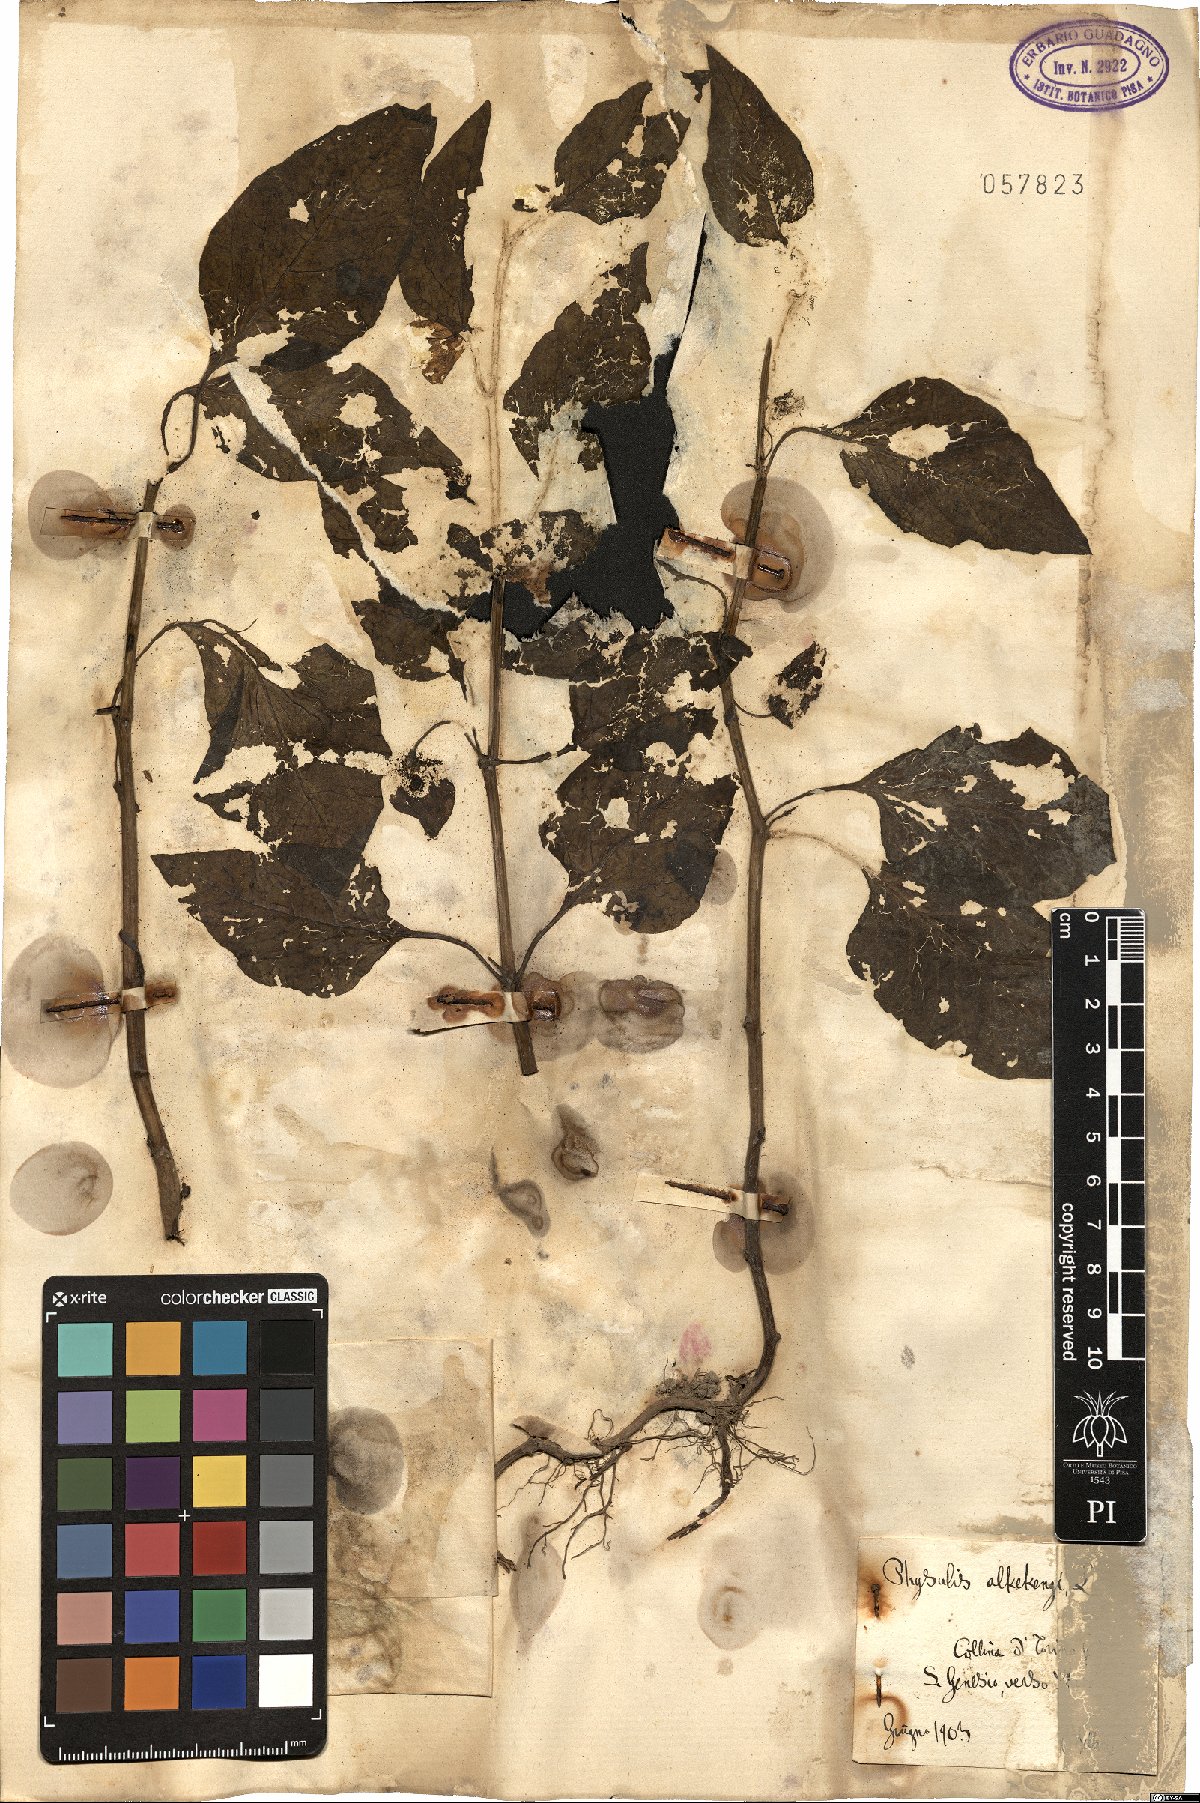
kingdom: Plantae
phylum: Tracheophyta
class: Magnoliopsida
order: Solanales
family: Solanaceae
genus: Alkekengi
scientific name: Alkekengi officinarum
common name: Japanese-lantern
